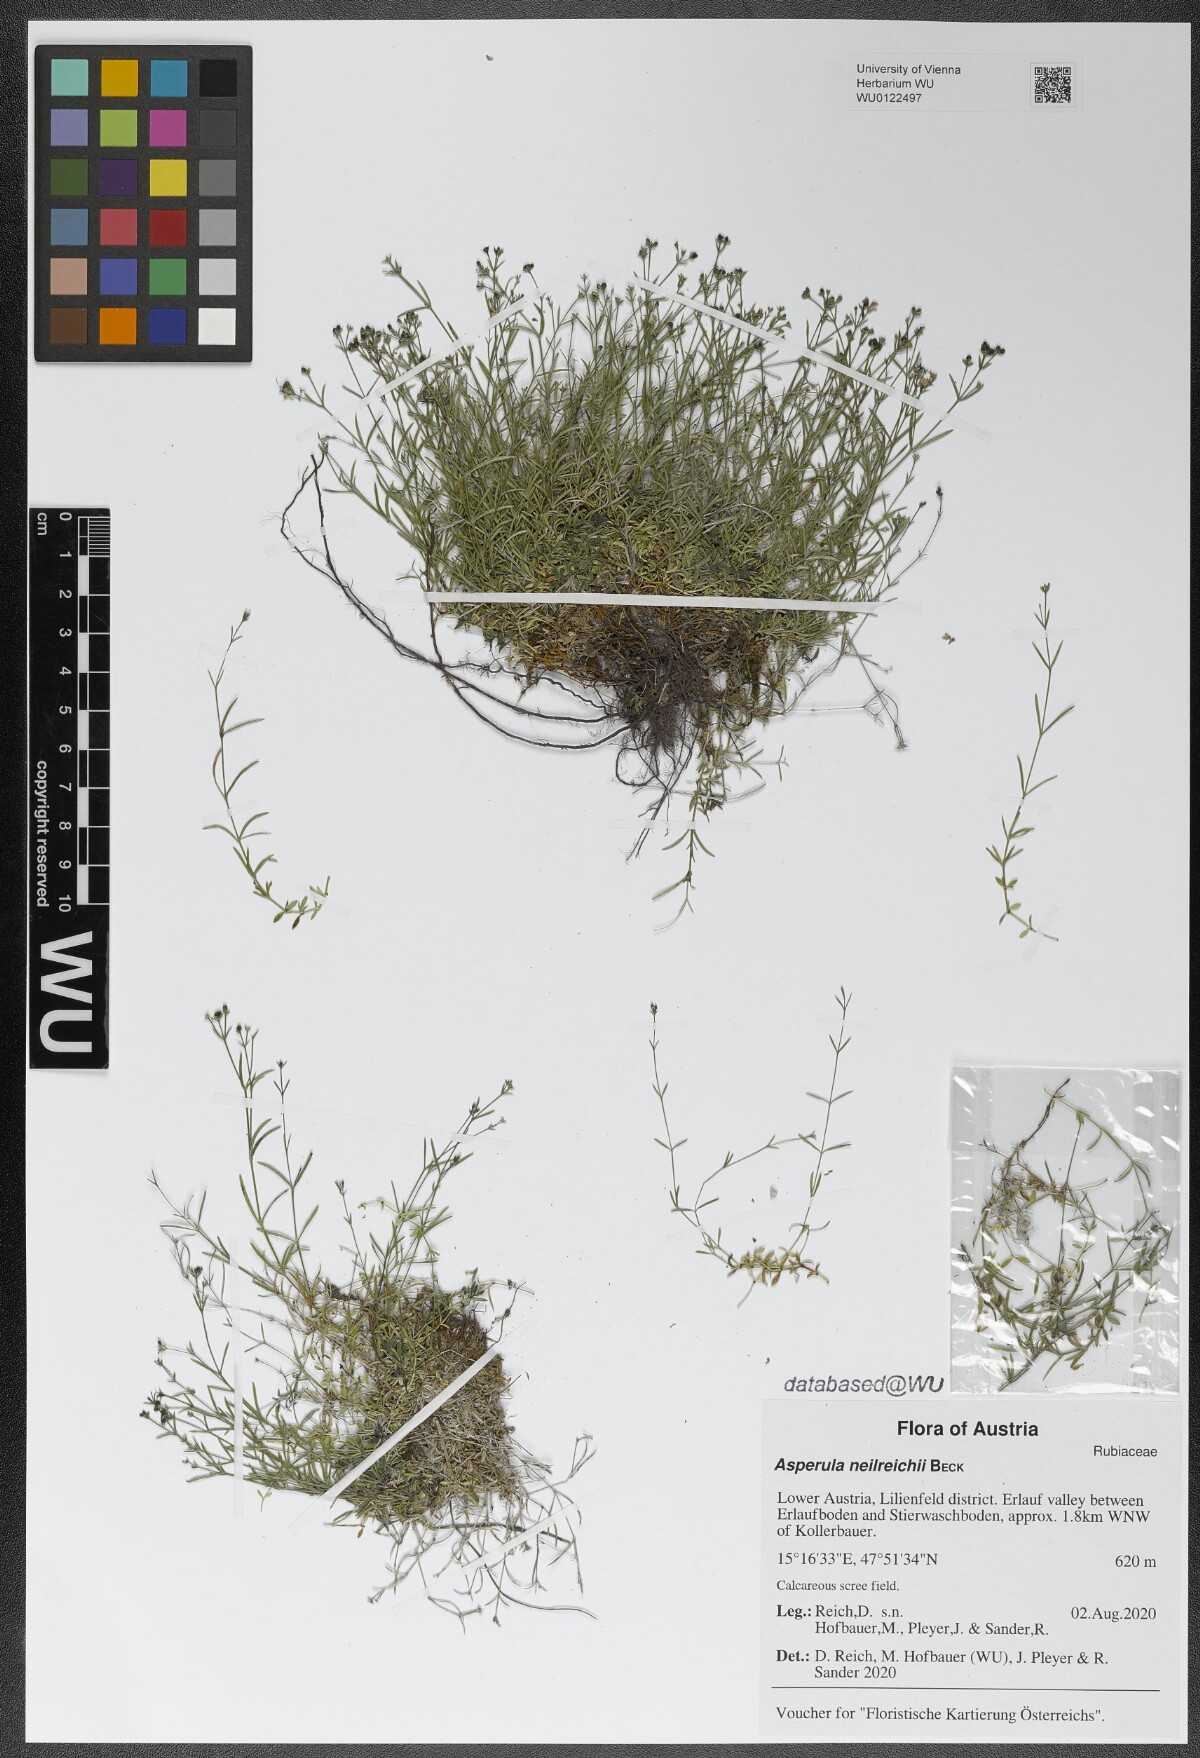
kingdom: Plantae
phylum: Tracheophyta
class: Magnoliopsida
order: Gentianales
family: Rubiaceae
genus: Cynanchica
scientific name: Cynanchica neilreichii
